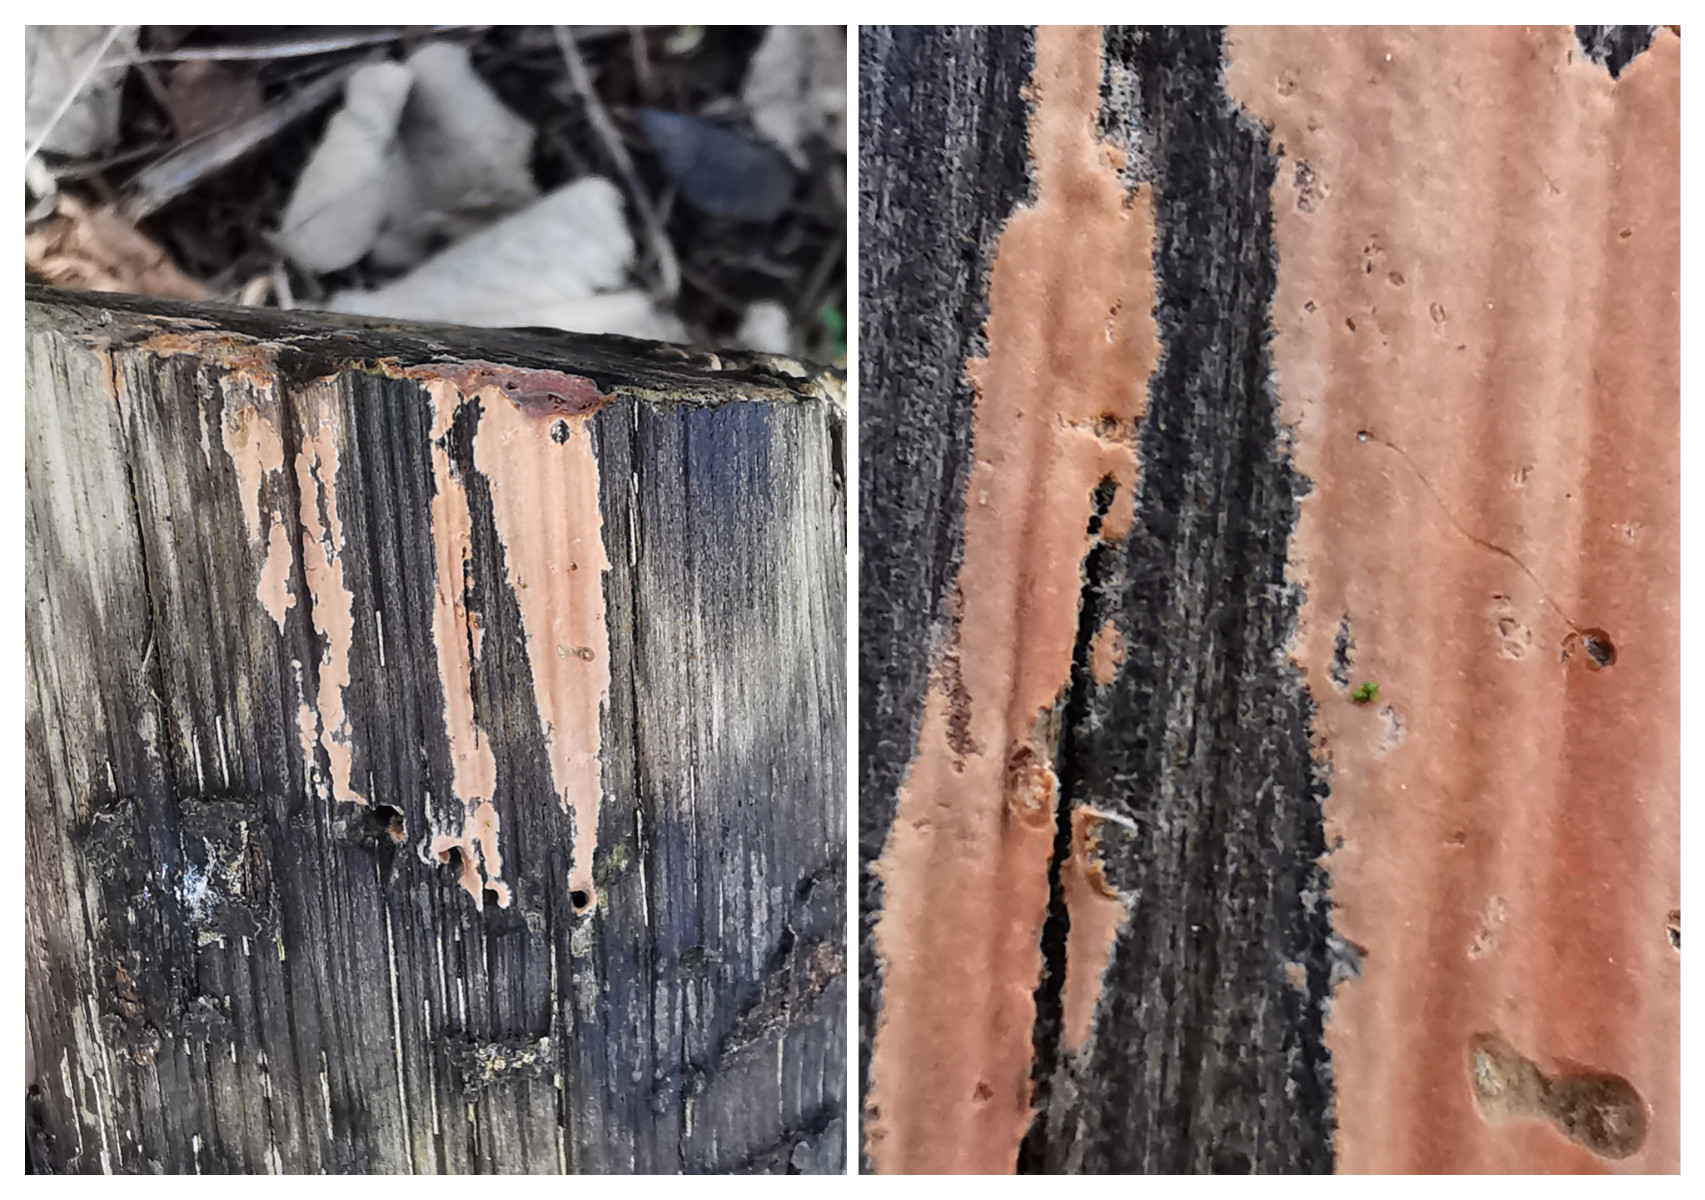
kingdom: Fungi
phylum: Basidiomycota
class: Agaricomycetes
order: Russulales
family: Peniophoraceae
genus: Peniophora
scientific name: Peniophora incarnata
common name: laksefarvet voksskind
